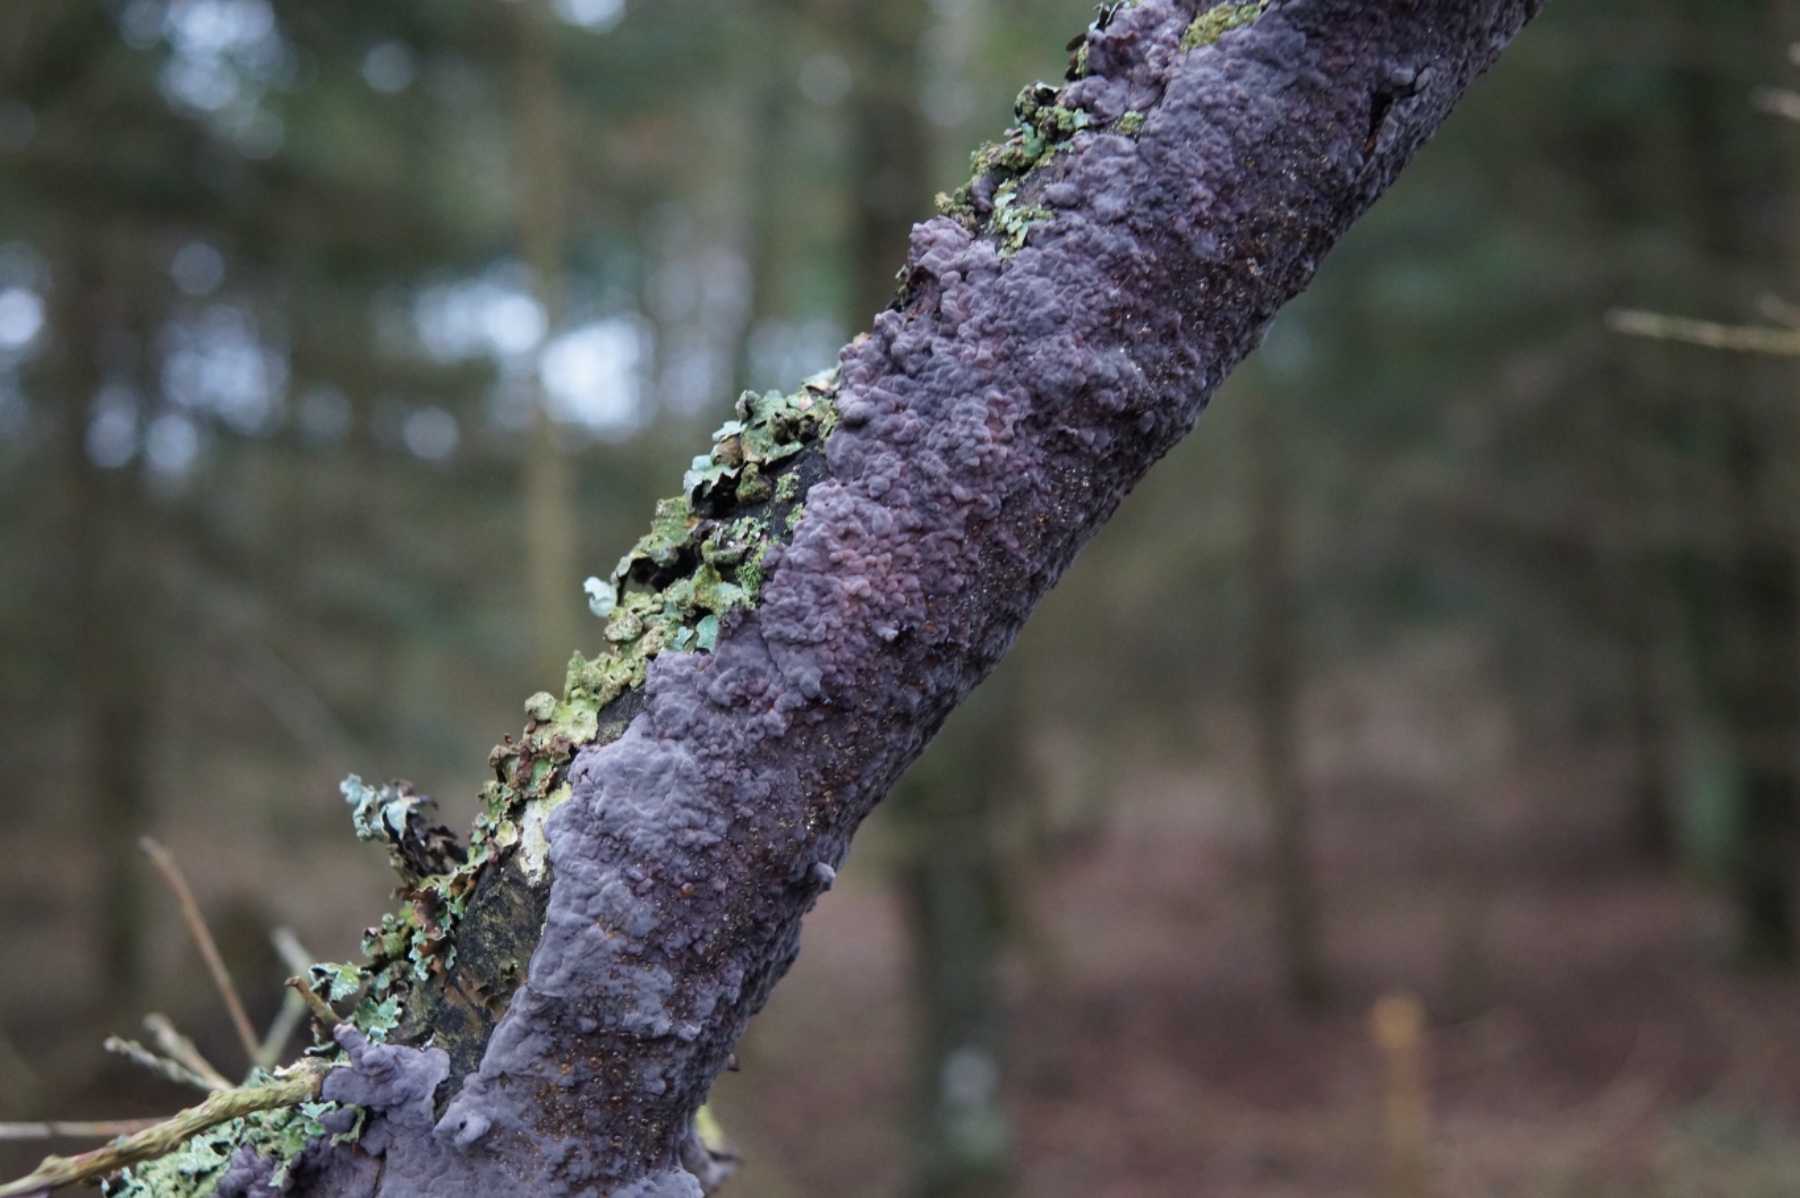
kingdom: Fungi
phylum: Basidiomycota
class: Agaricomycetes
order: Russulales
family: Peniophoraceae
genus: Peniophora
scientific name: Peniophora quercina
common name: ege-voksskind
